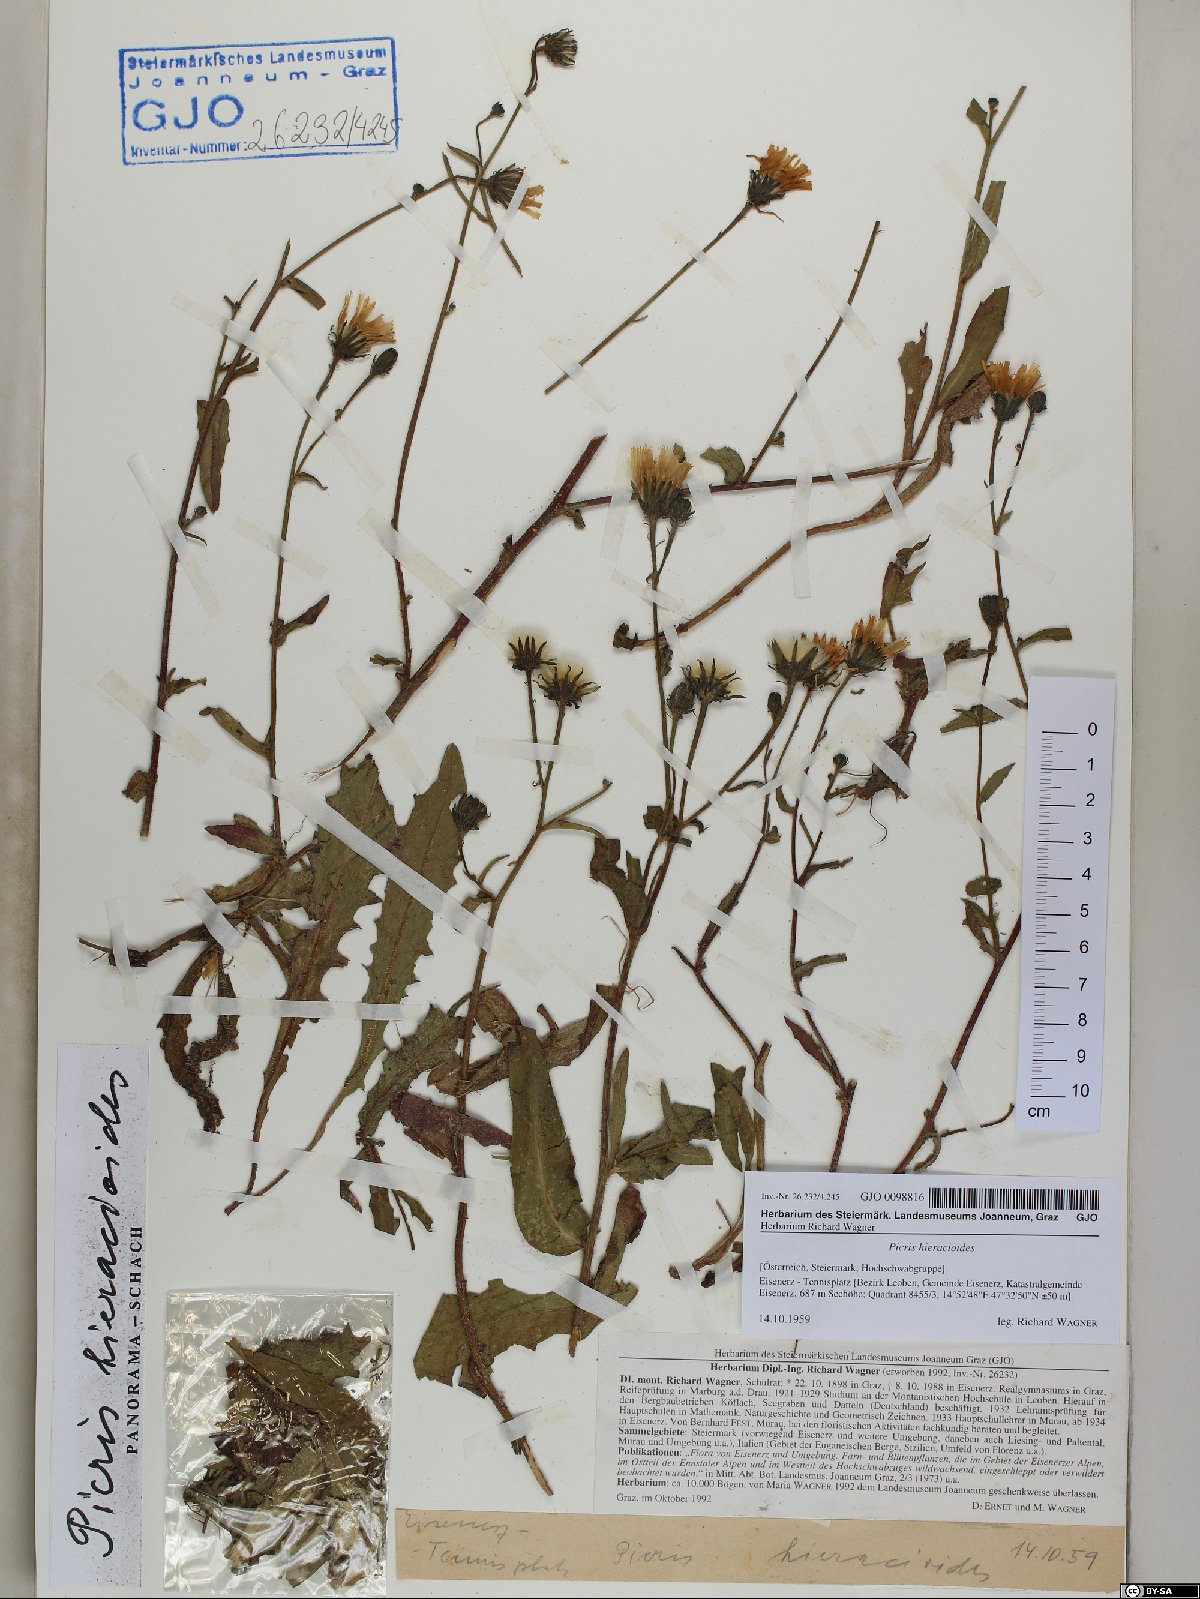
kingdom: Plantae
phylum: Tracheophyta
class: Magnoliopsida
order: Asterales
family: Asteraceae
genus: Picris
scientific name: Picris hieracioides
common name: Hawkweed oxtongue
